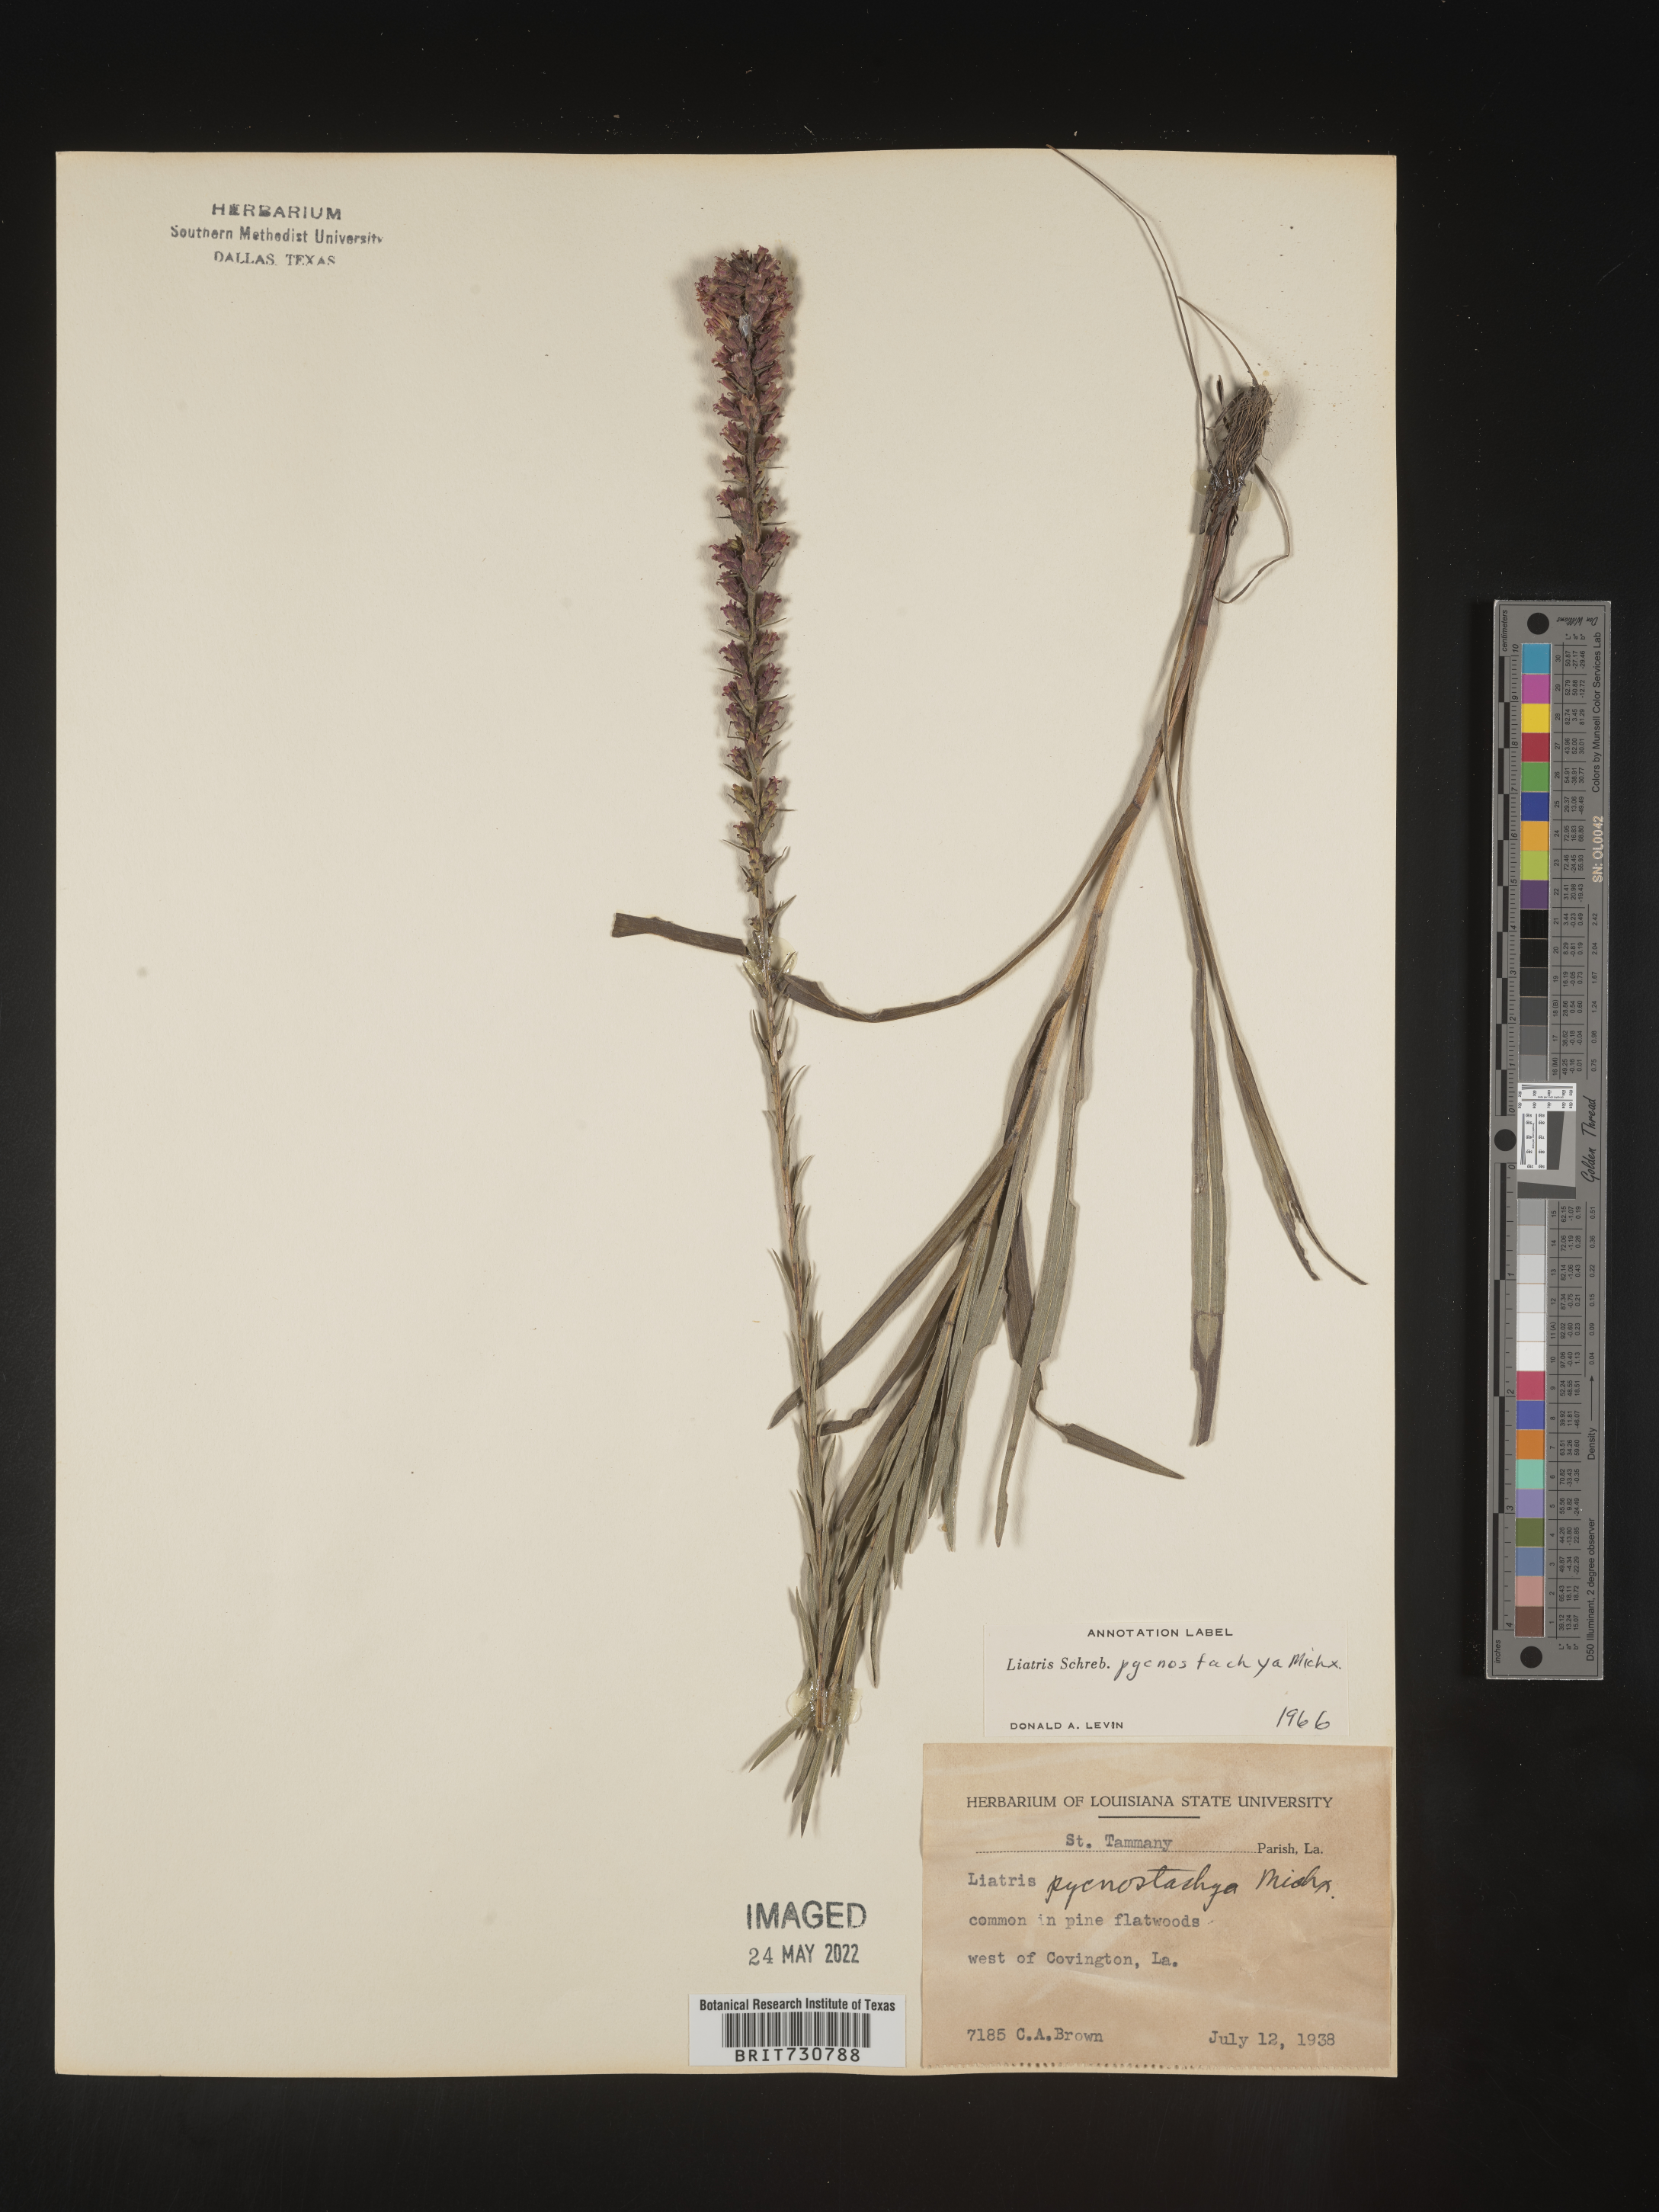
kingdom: Plantae
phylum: Tracheophyta
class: Magnoliopsida
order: Asterales
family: Asteraceae
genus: Liatris
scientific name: Liatris pycnostachya
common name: Cattail gayfeather
